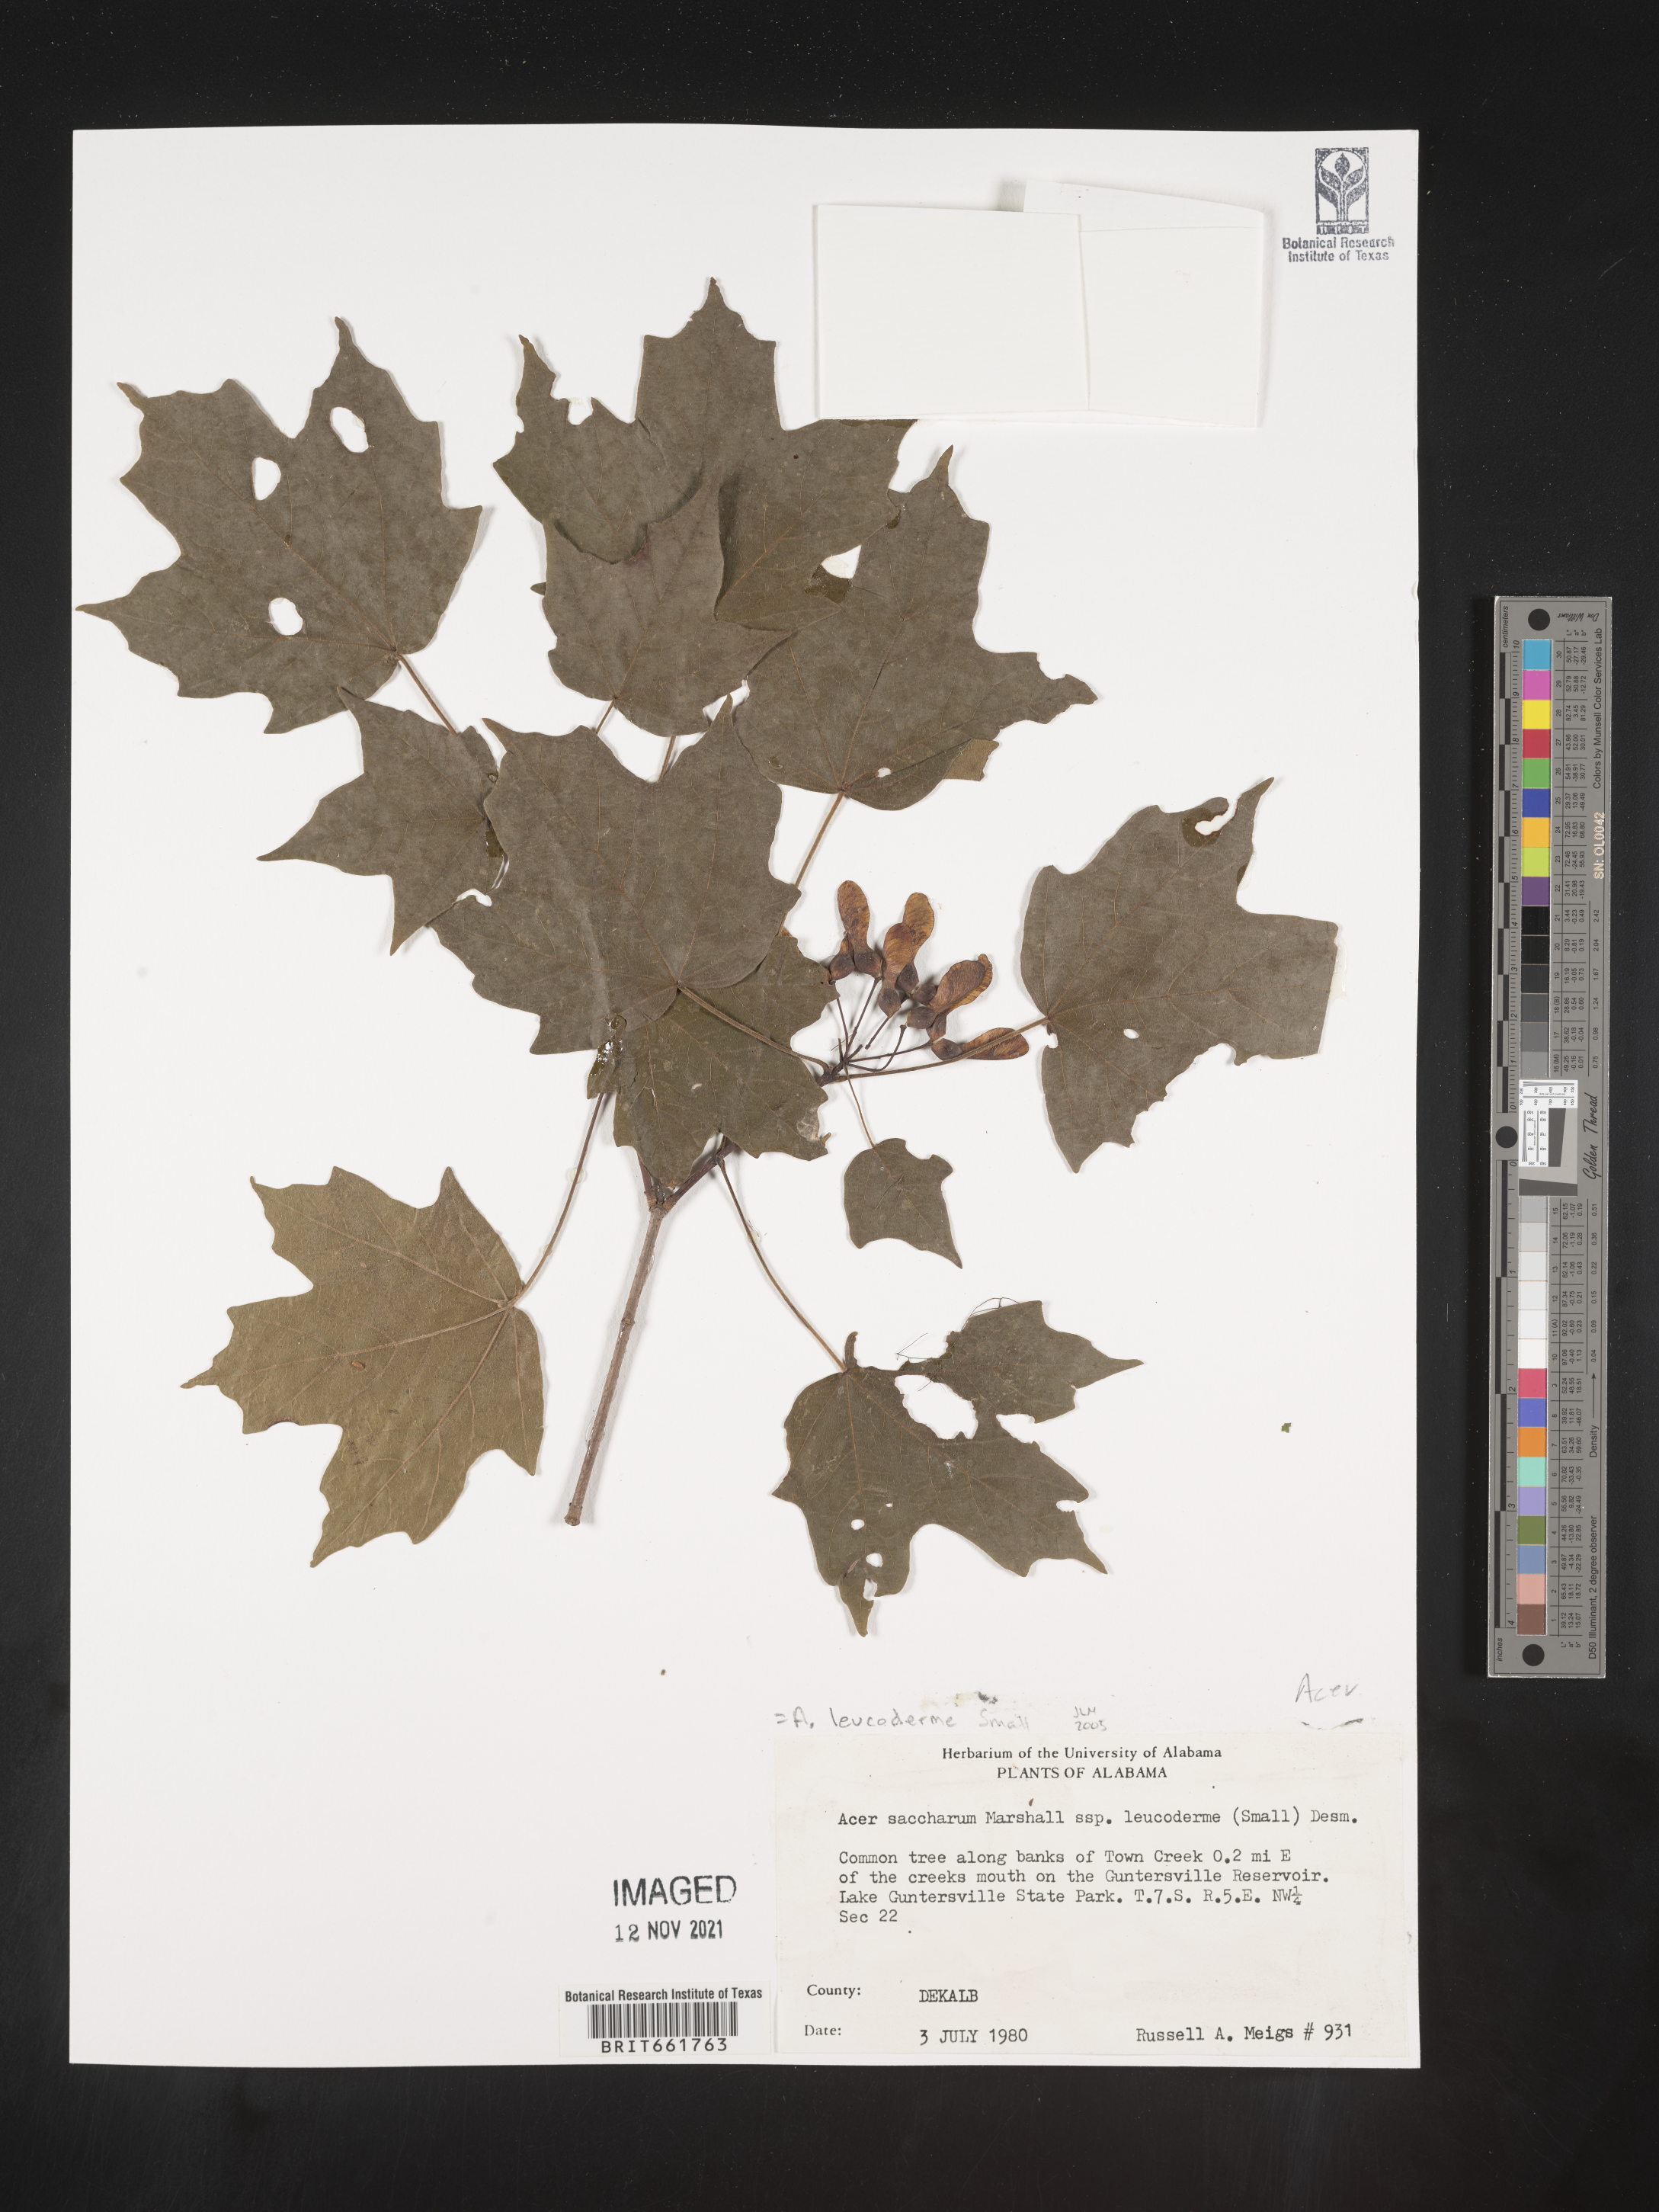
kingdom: Plantae
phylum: Tracheophyta
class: Magnoliopsida
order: Sapindales
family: Sapindaceae
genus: Acer
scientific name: Acer saccharinum
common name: Silver maple
